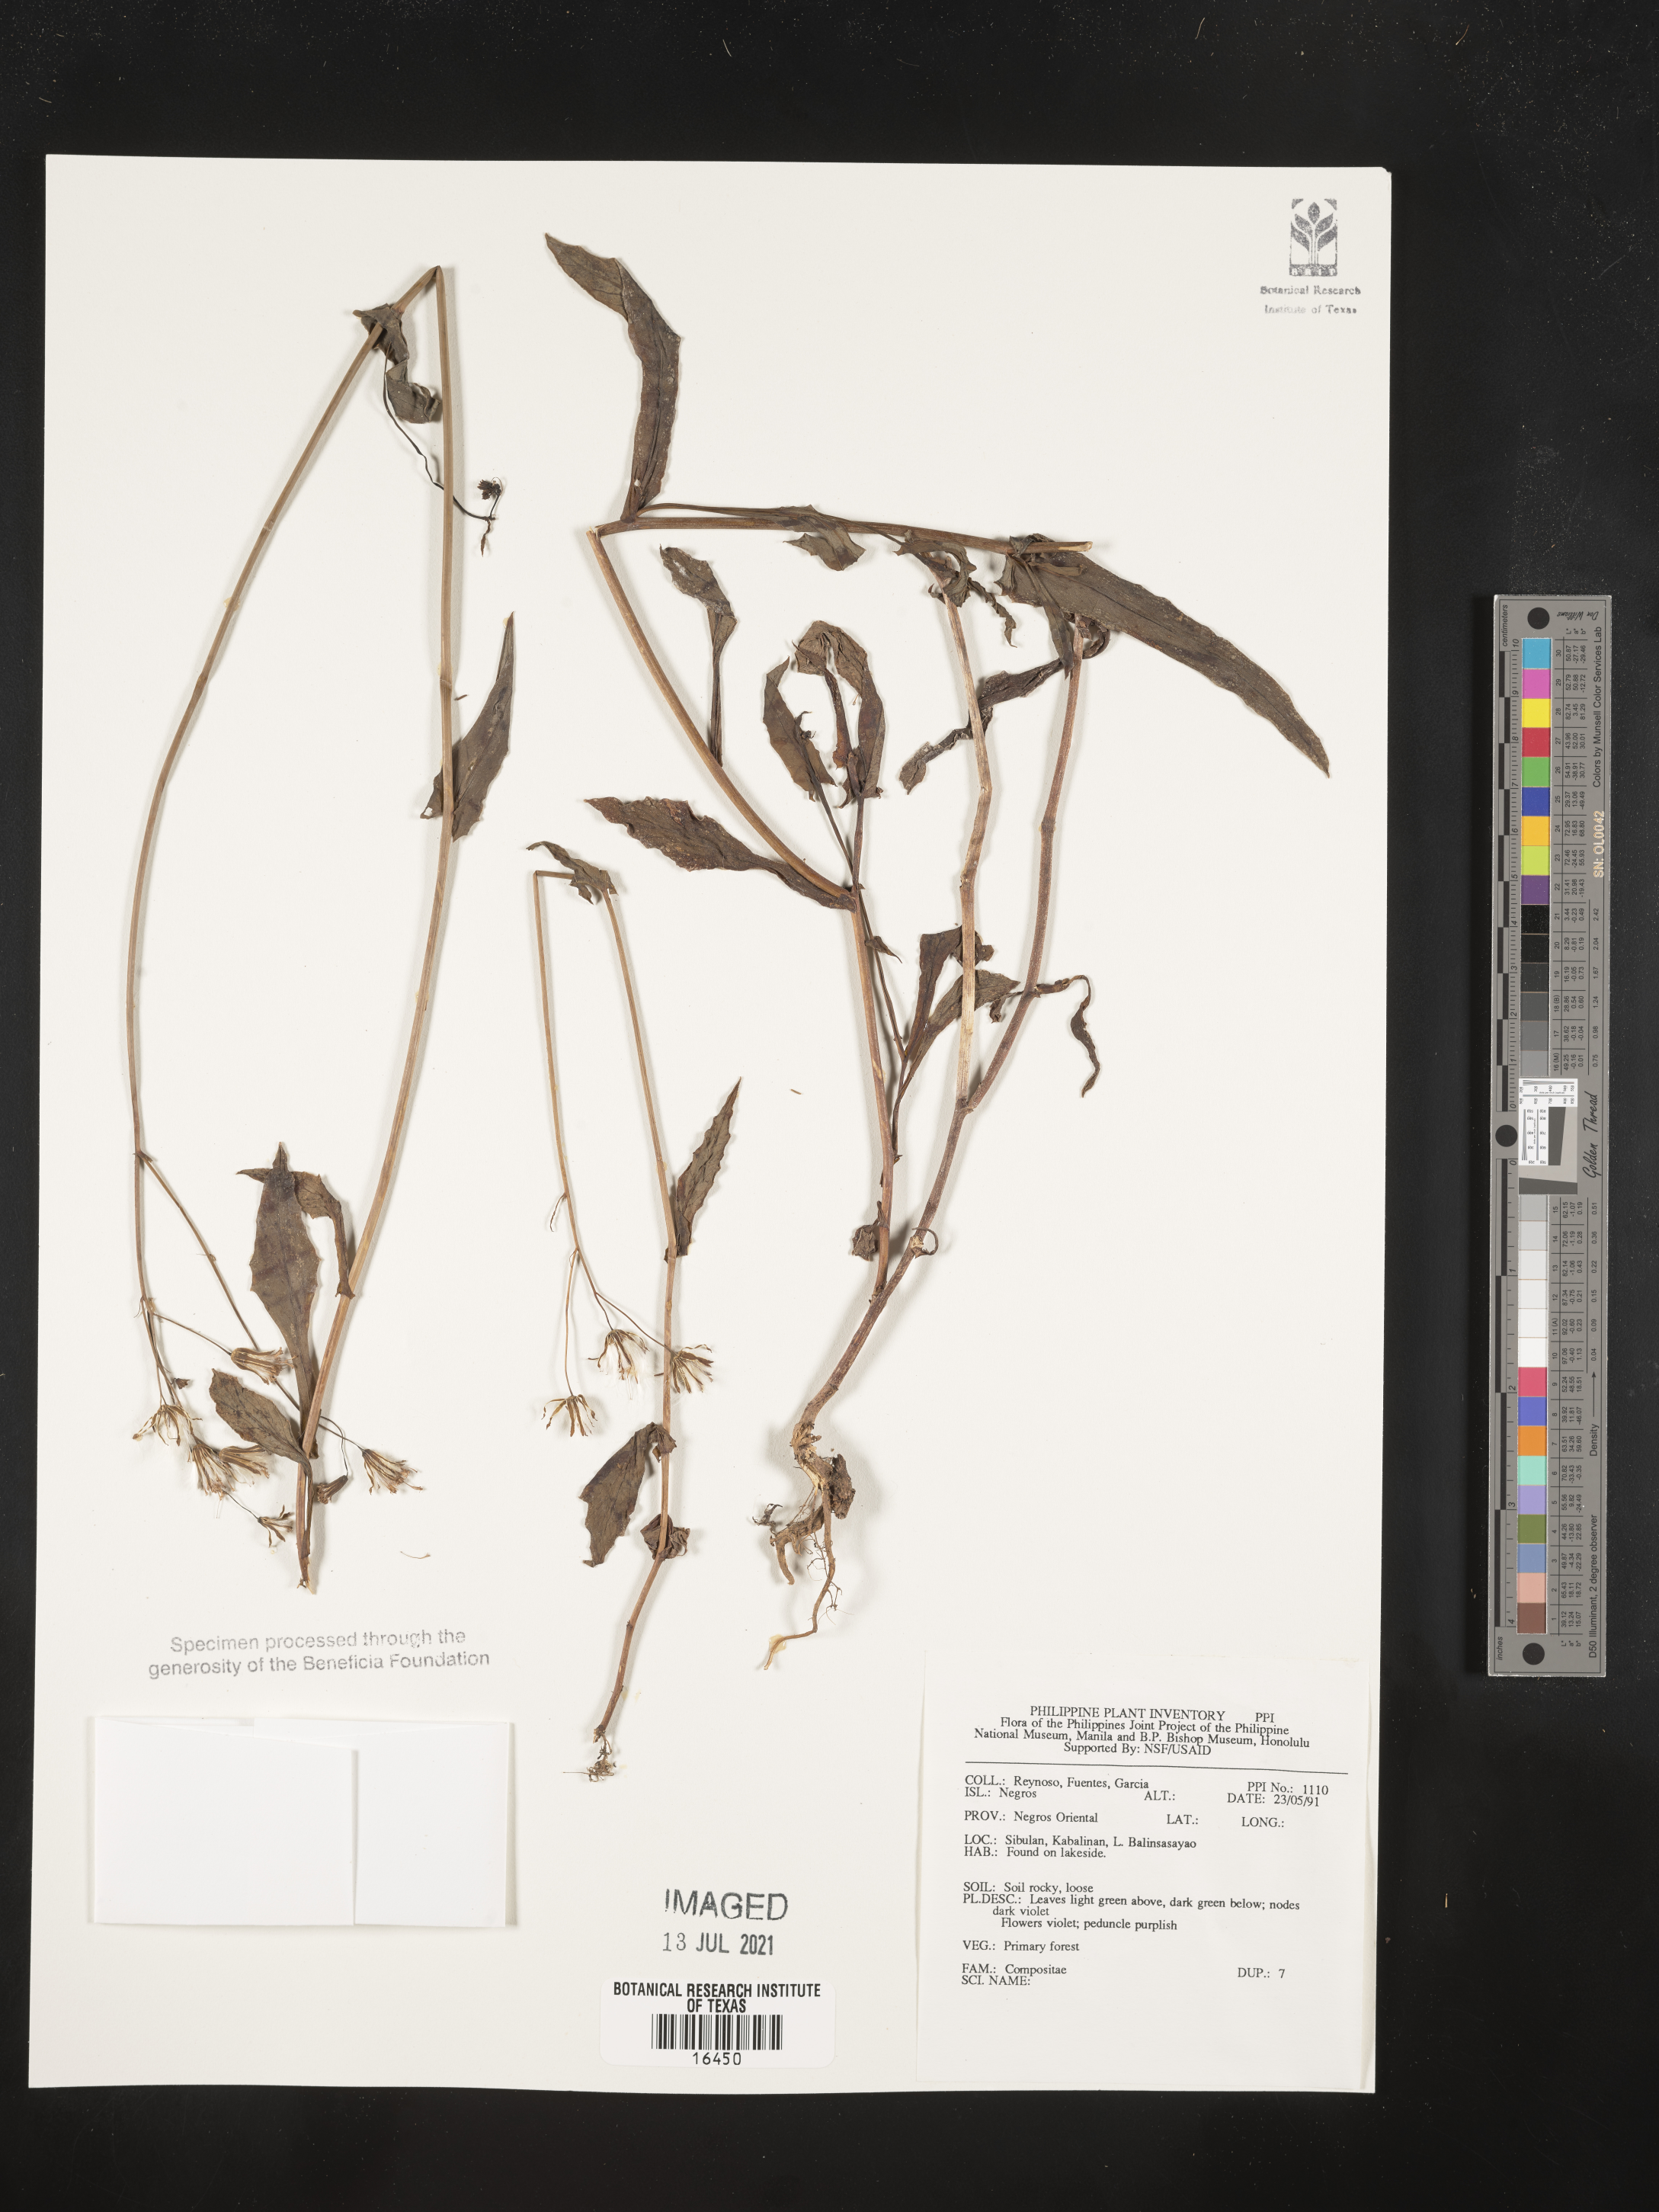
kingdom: Plantae
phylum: Tracheophyta
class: Magnoliopsida
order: Asterales
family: Asteraceae
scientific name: Asteraceae
